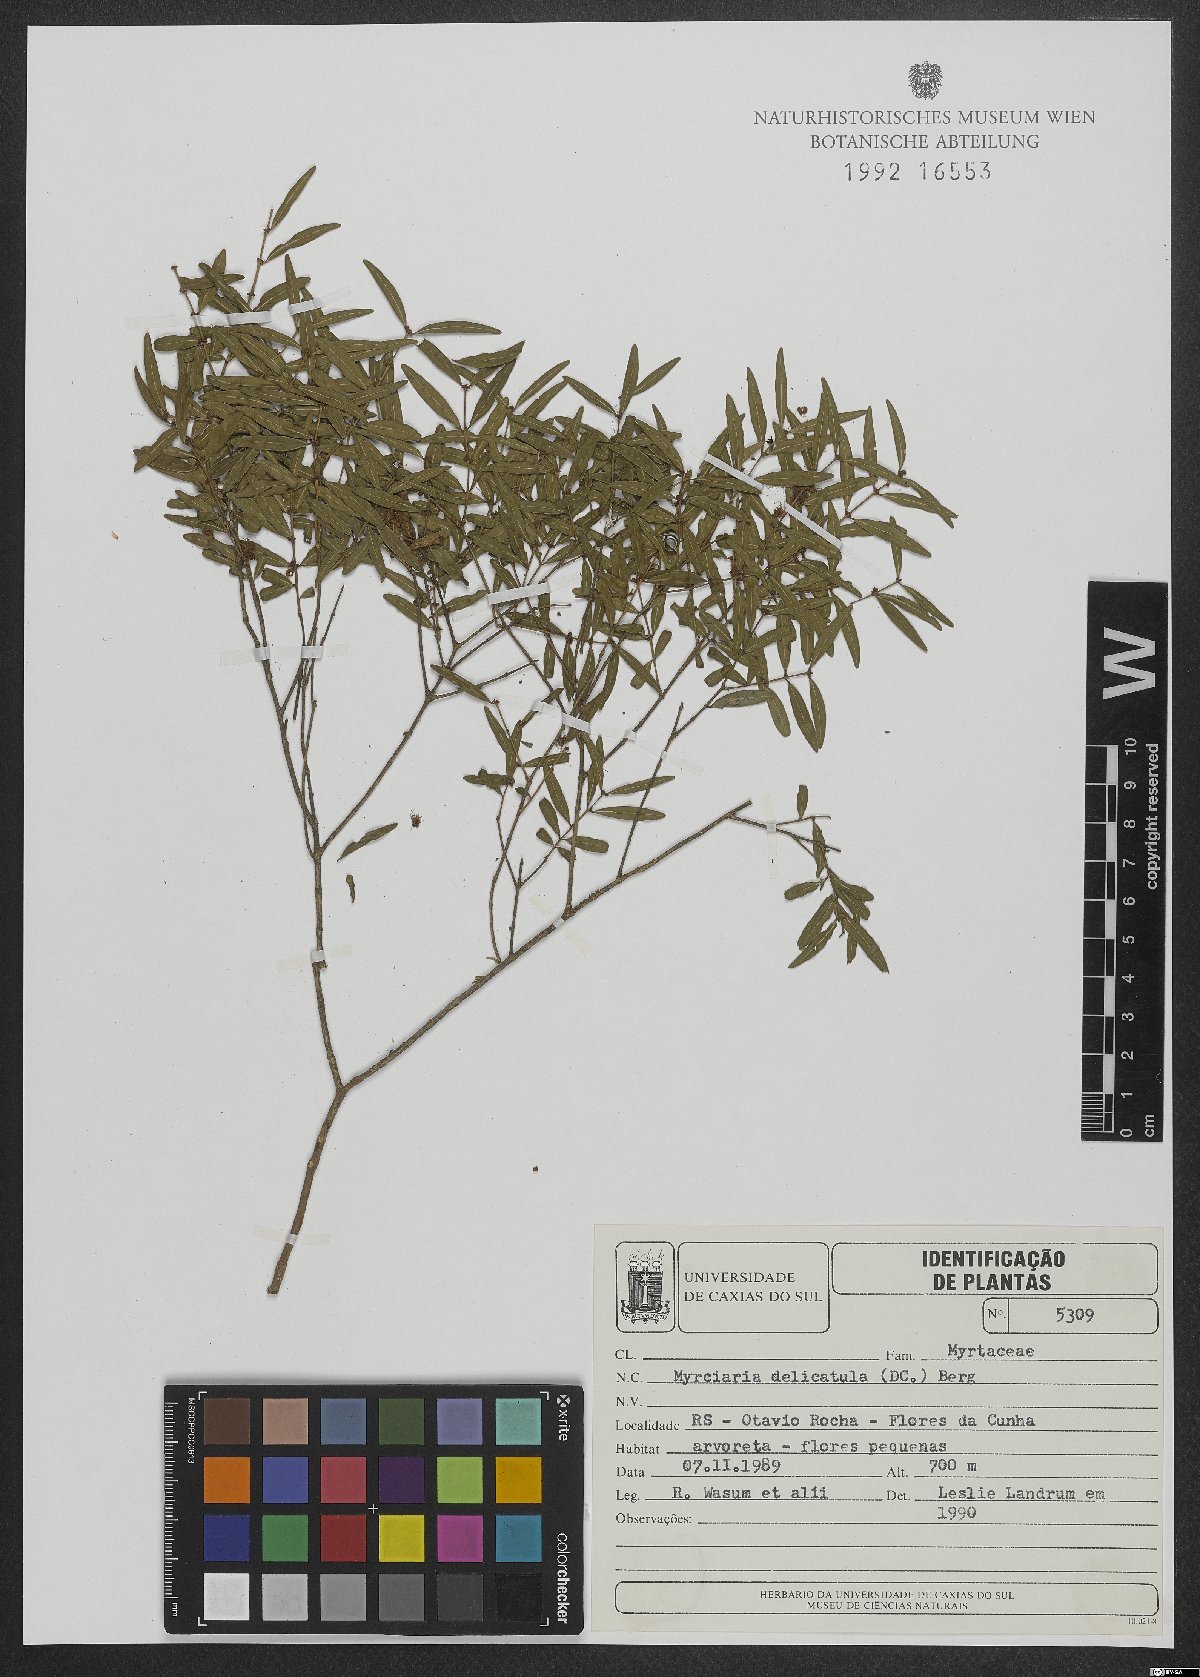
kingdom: Plantae
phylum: Tracheophyta
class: Magnoliopsida
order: Myrtales
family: Myrtaceae
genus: Myrciaria
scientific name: Myrciaria delicatula
